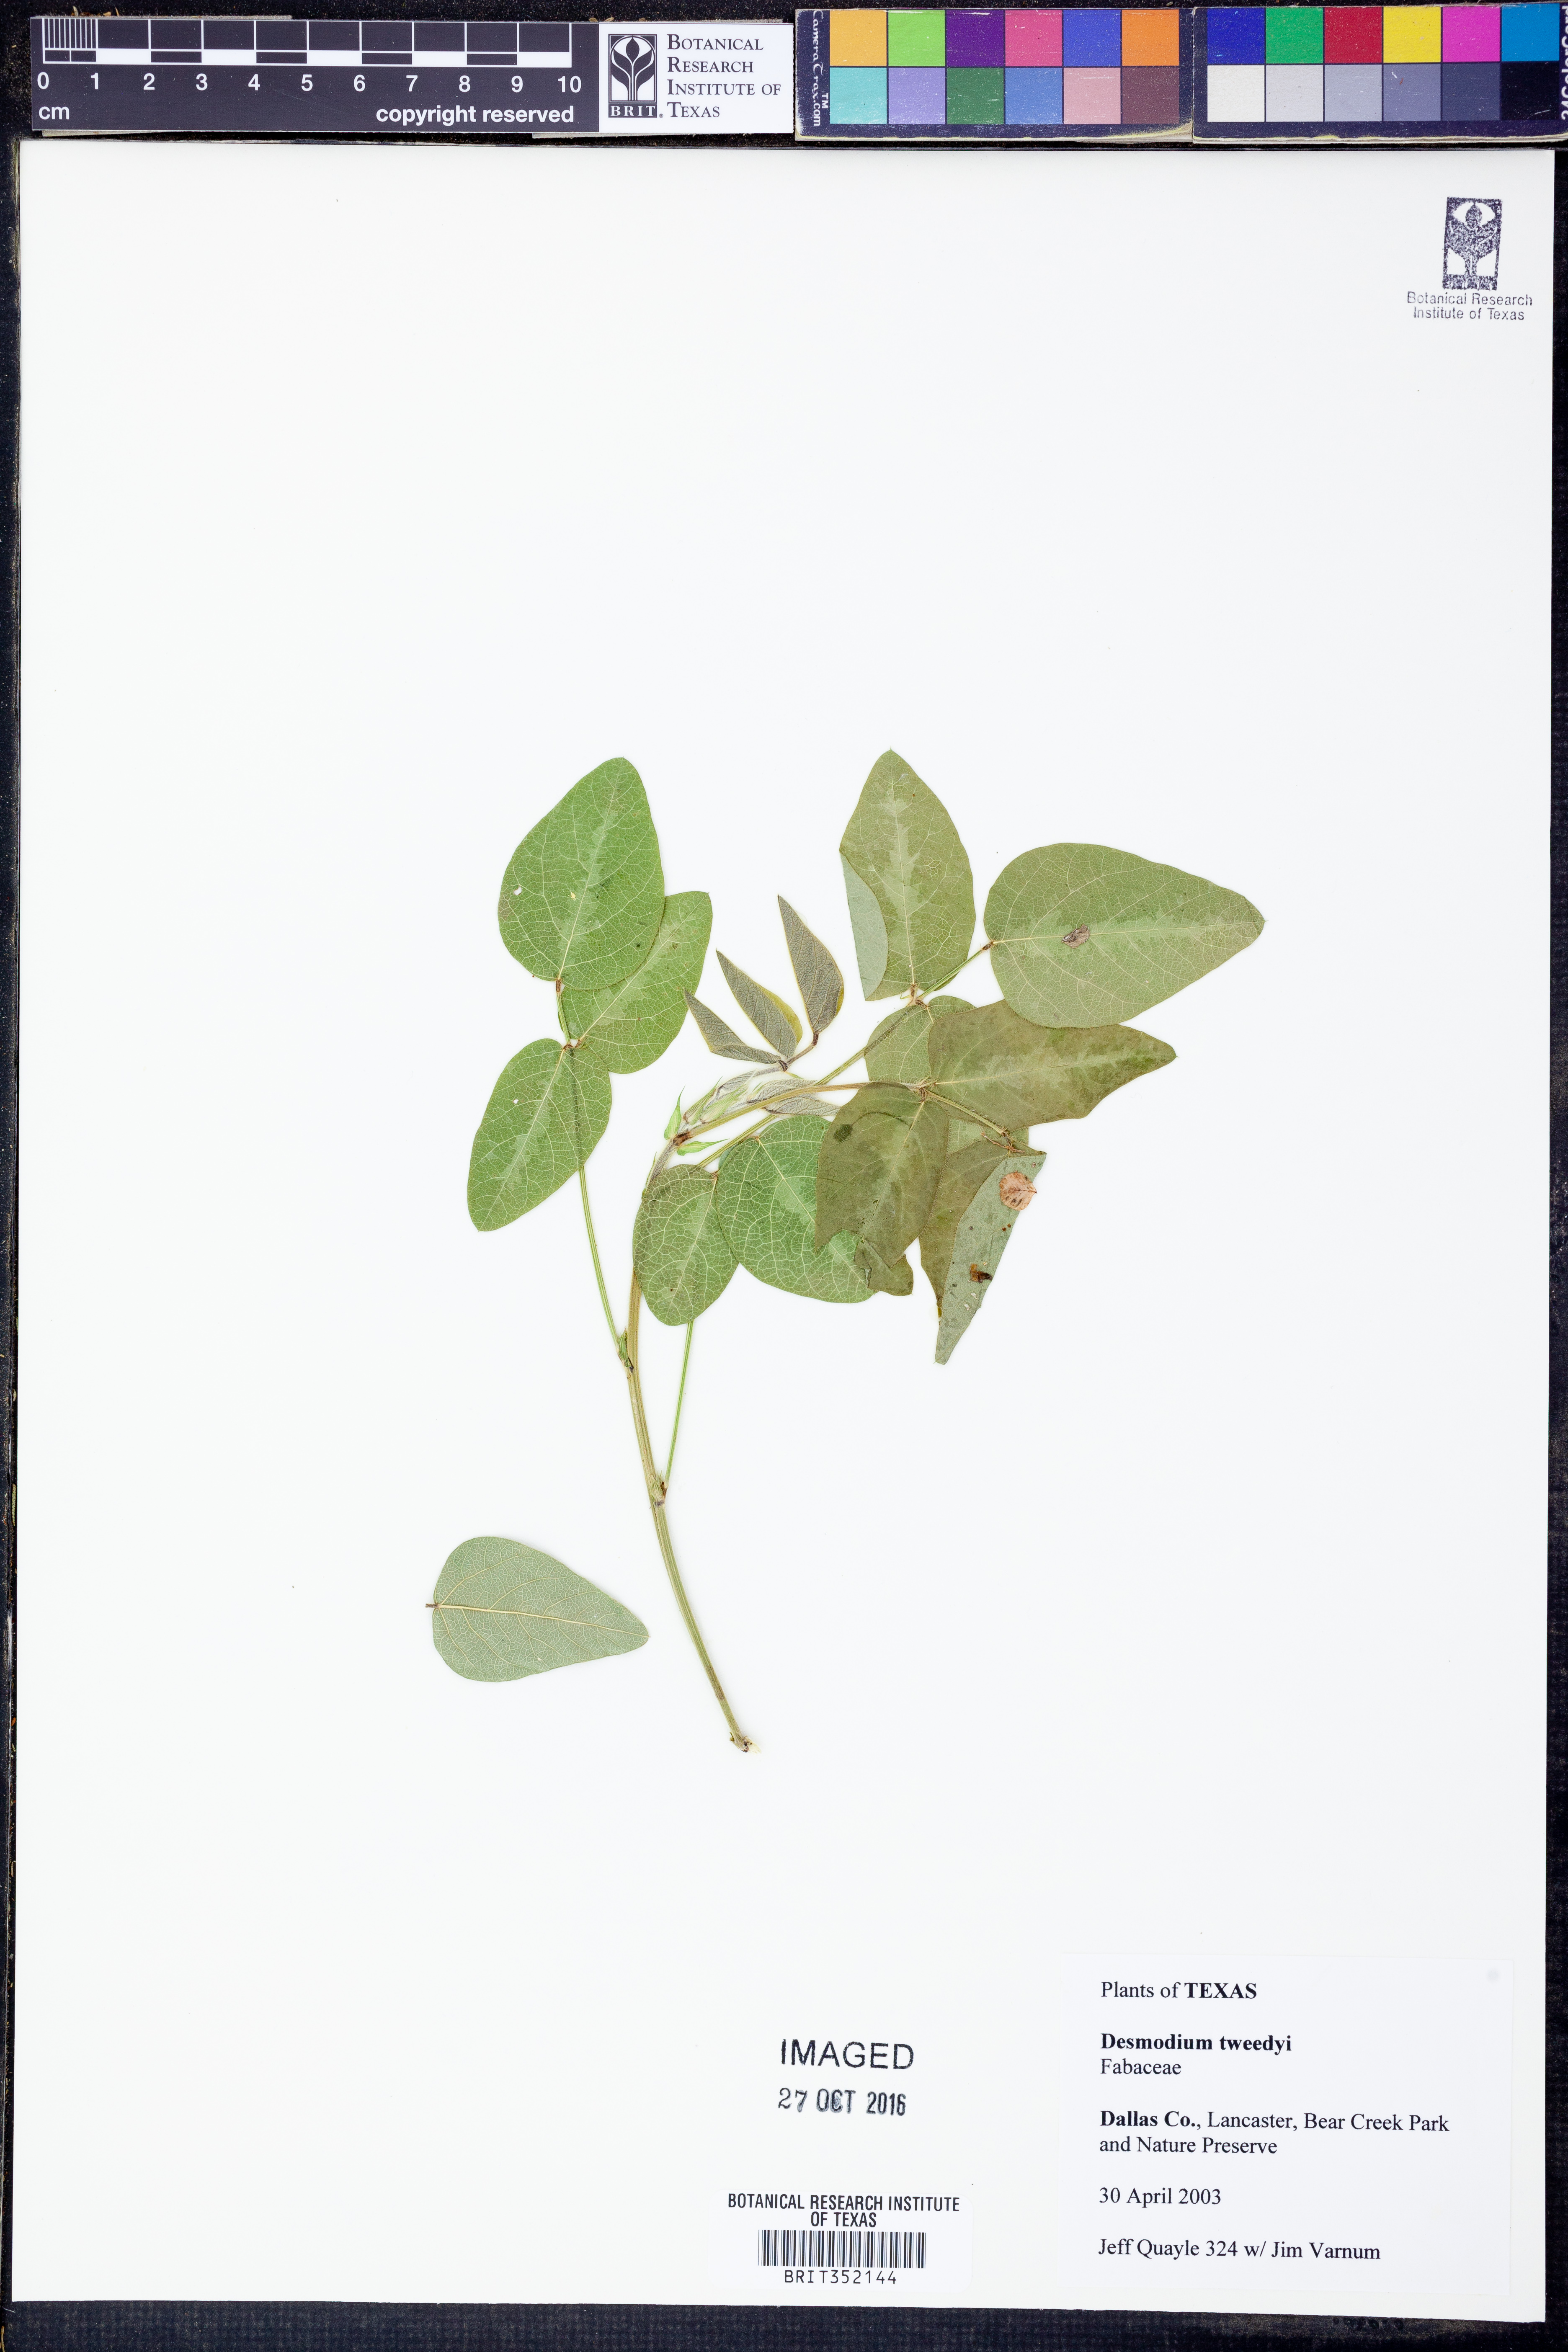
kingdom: Plantae
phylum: Tracheophyta
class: Magnoliopsida
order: Fabales
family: Fabaceae
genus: Desmodium
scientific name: Desmodium tweedyi
